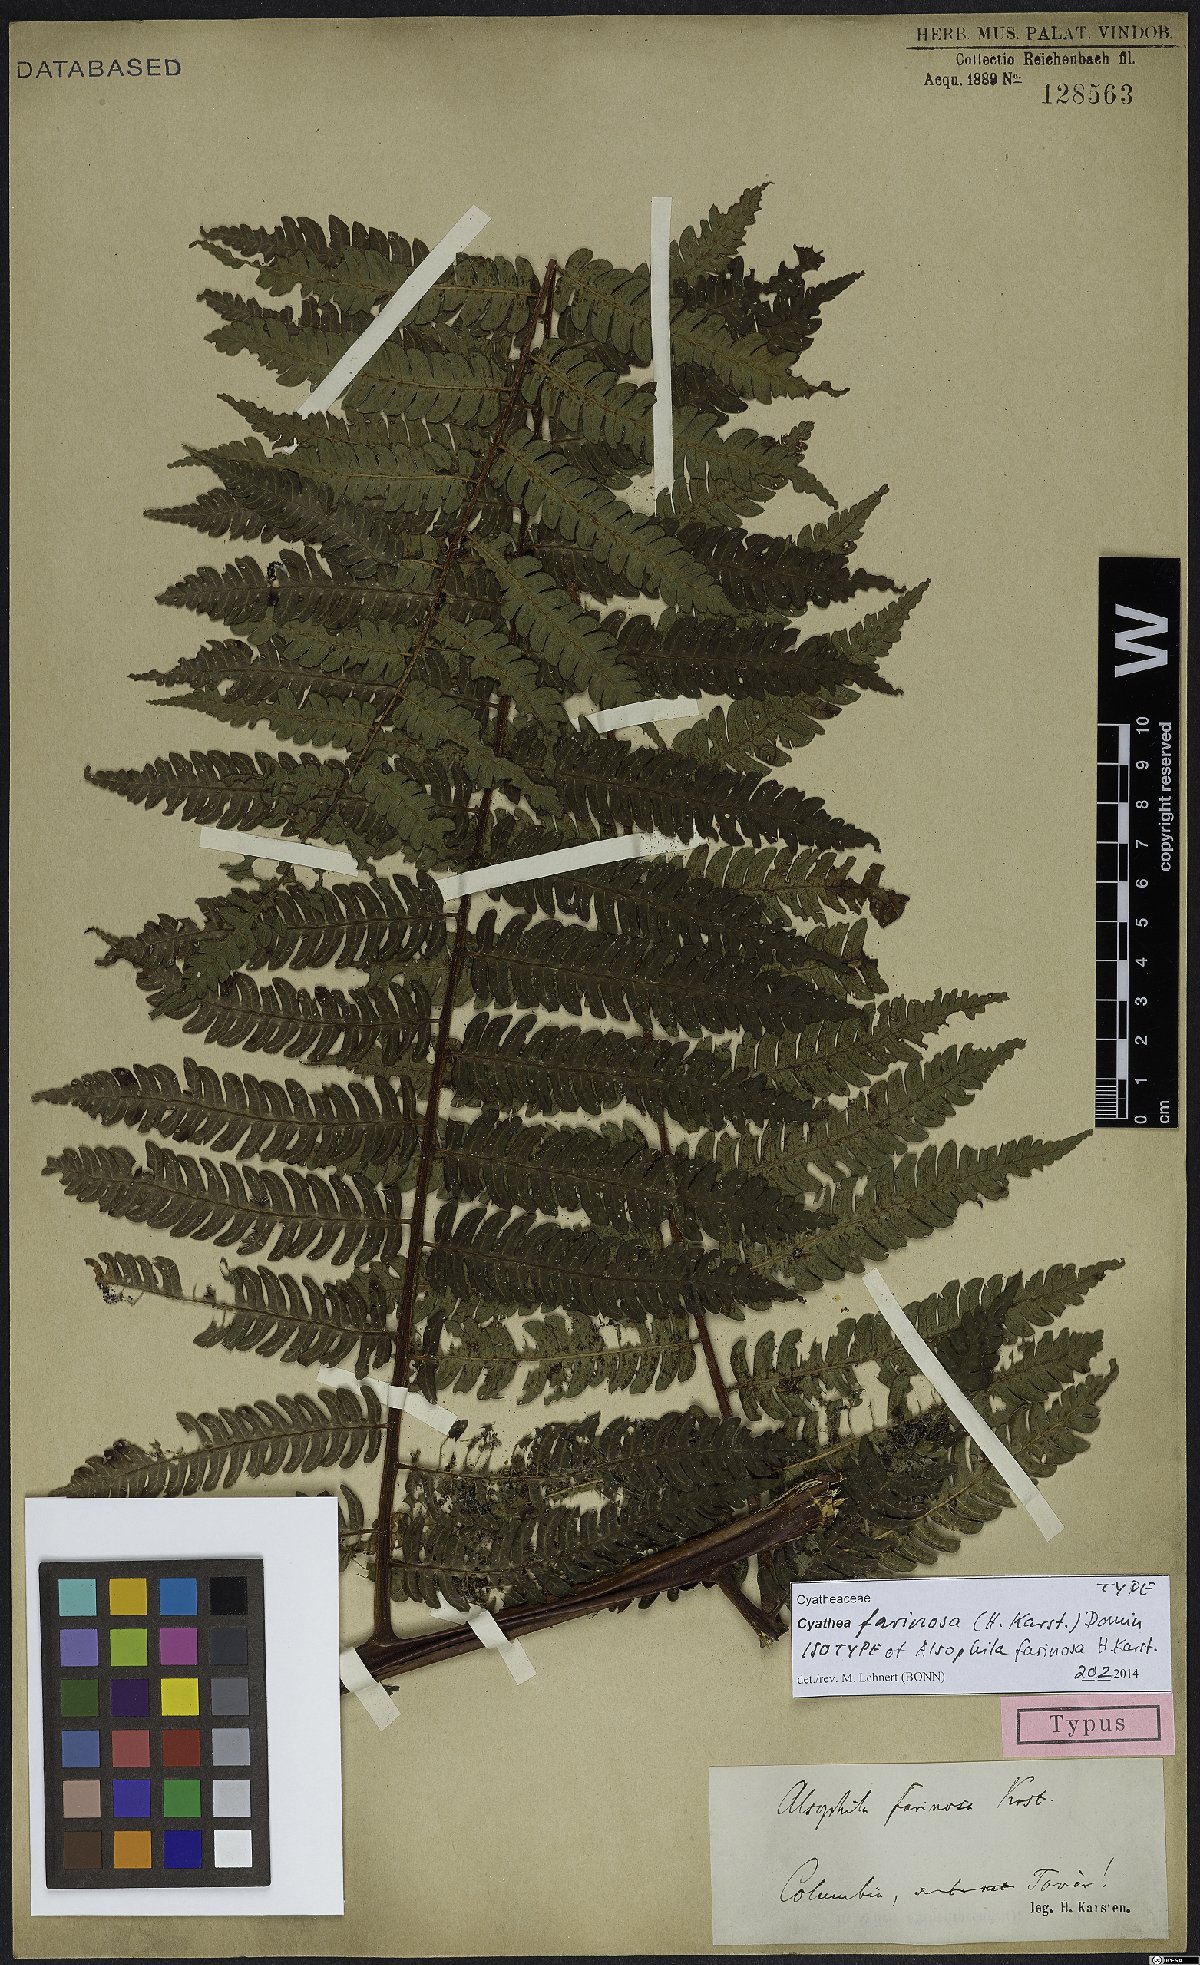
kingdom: Plantae
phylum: Tracheophyta
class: Polypodiopsida
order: Cyatheales
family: Cyatheaceae
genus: Cyathea
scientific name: Cyathea gibbosa
